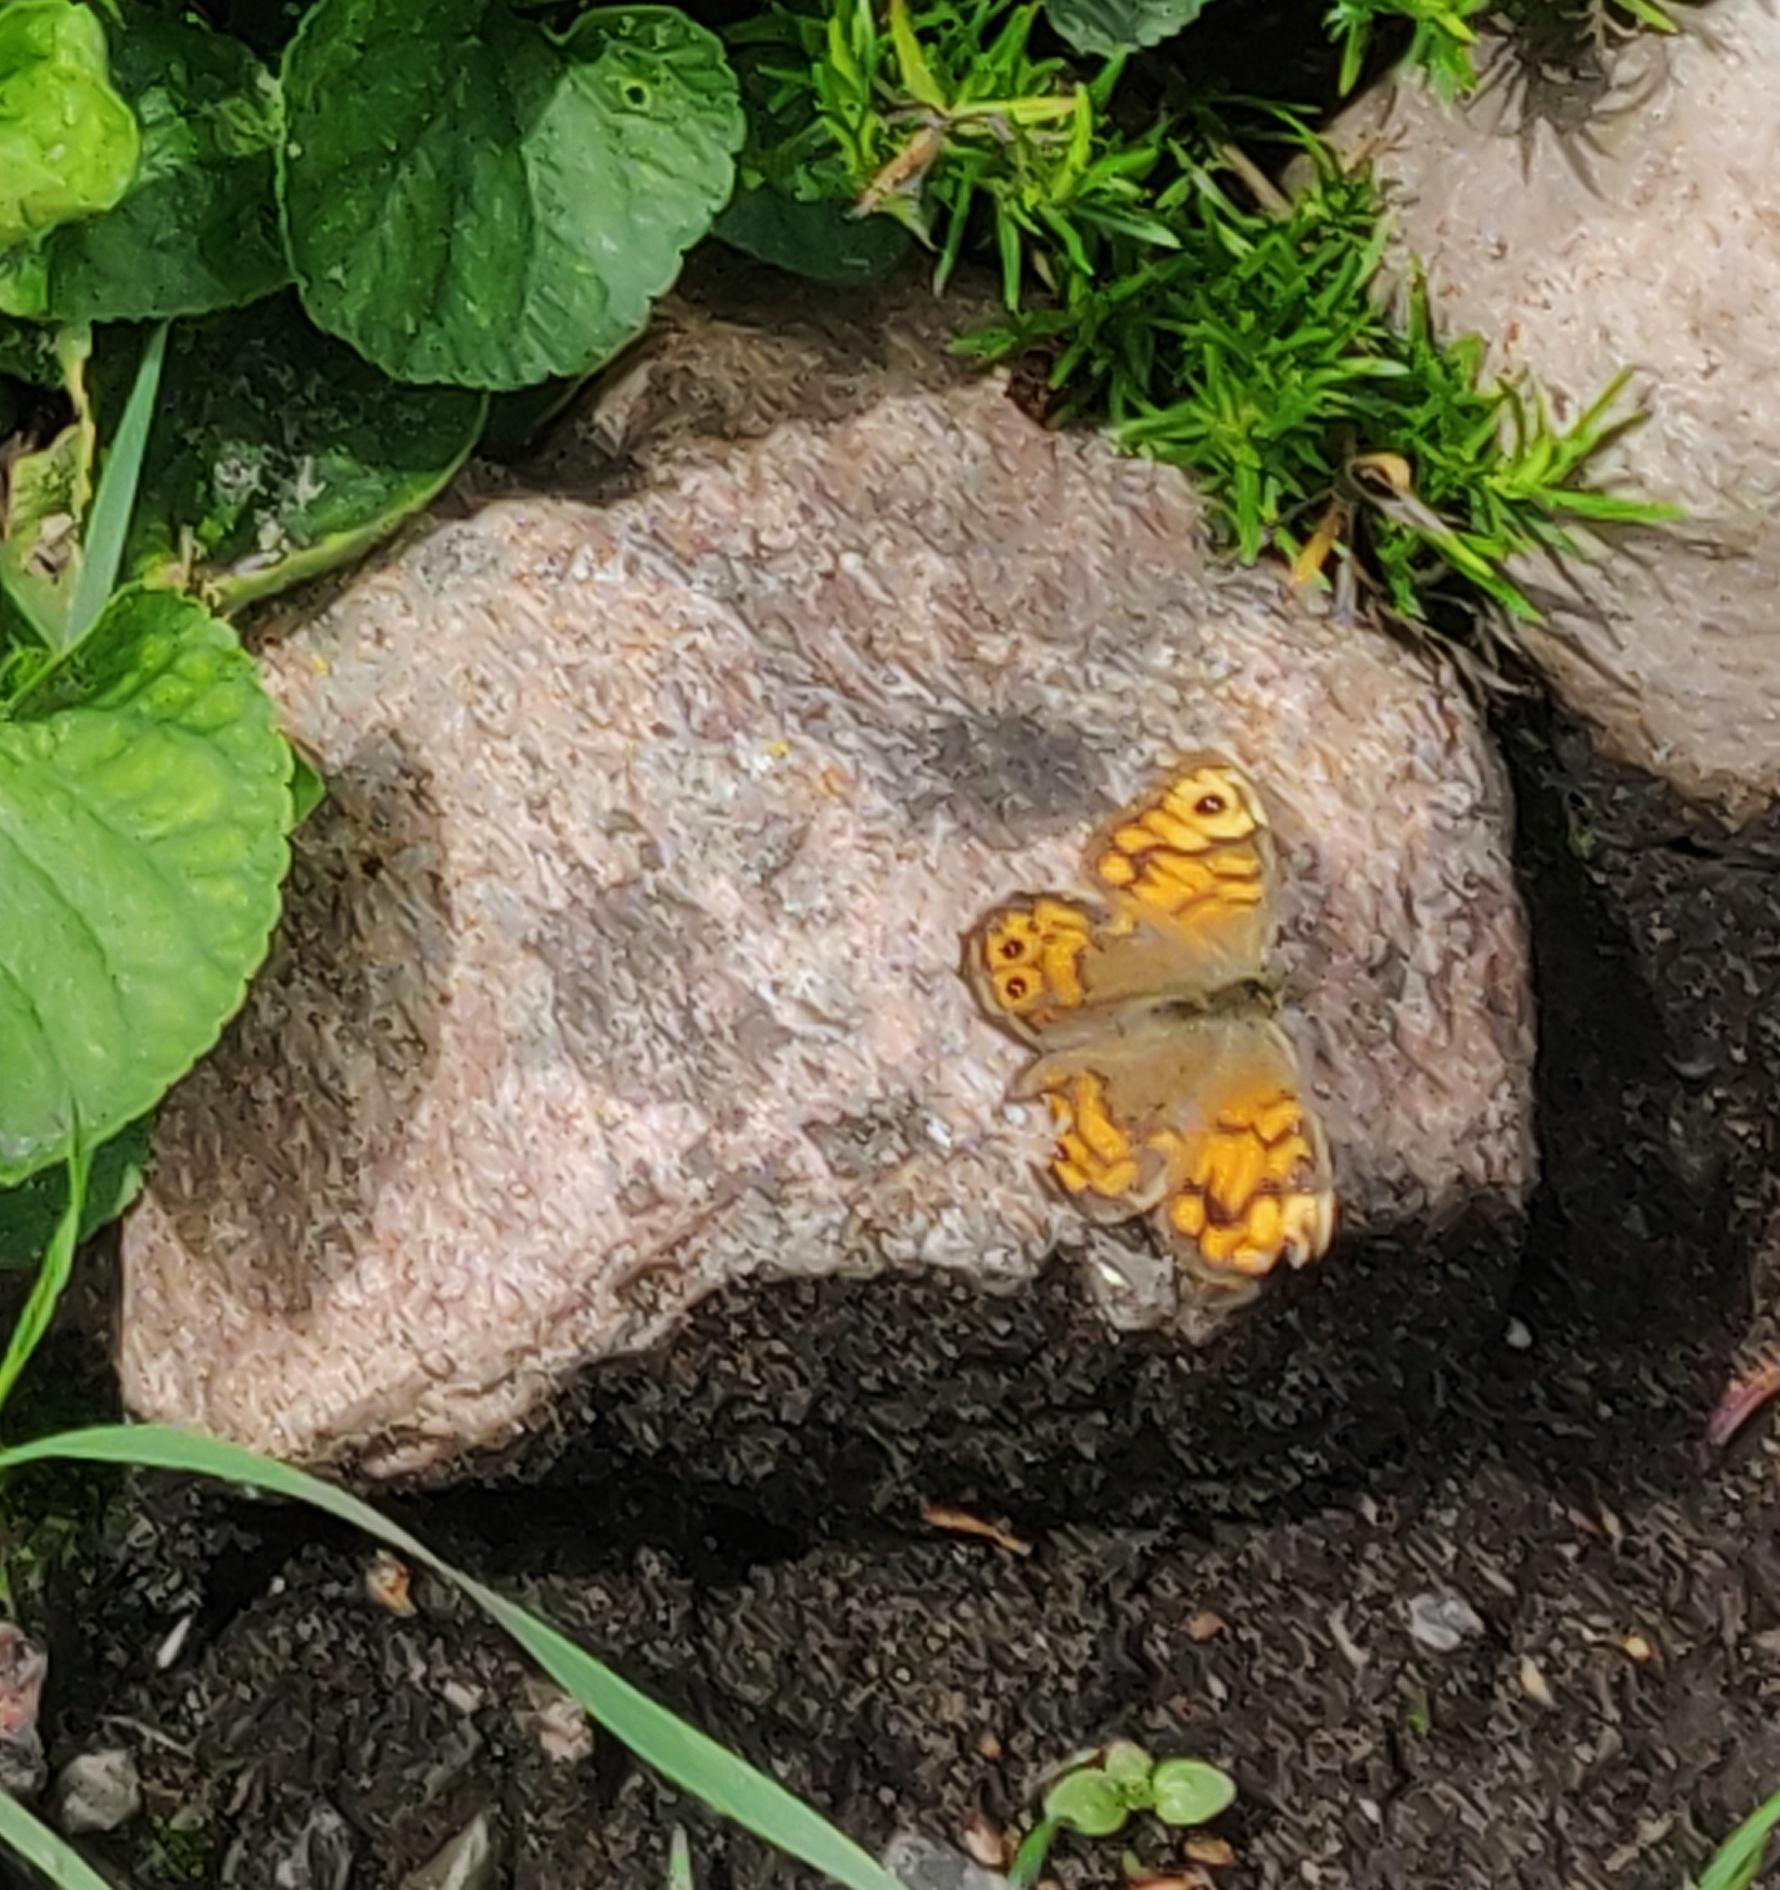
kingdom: Animalia
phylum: Arthropoda
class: Insecta
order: Lepidoptera
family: Nymphalidae
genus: Pararge
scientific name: Pararge Lasiommata megera
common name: Vejrandøje
